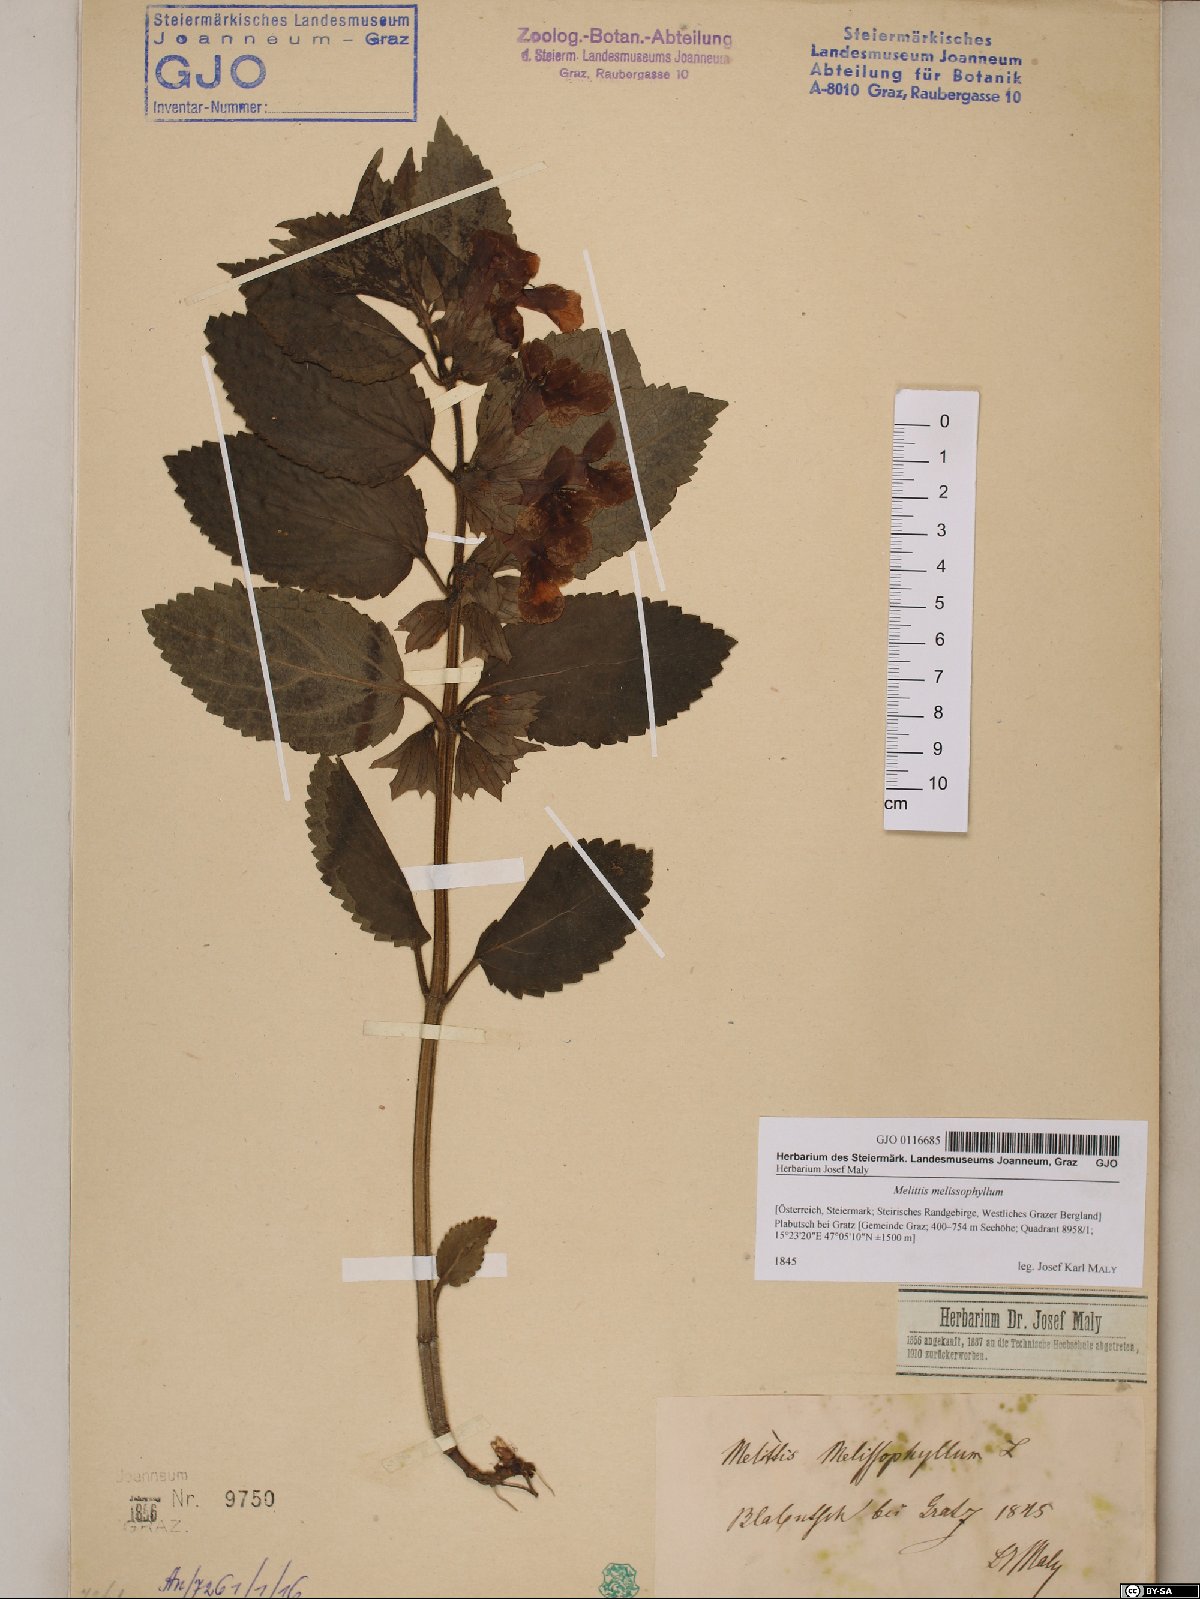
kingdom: Plantae
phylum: Tracheophyta
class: Magnoliopsida
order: Lamiales
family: Lamiaceae
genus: Melittis
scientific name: Melittis melissophyllum
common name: Bastard balm
